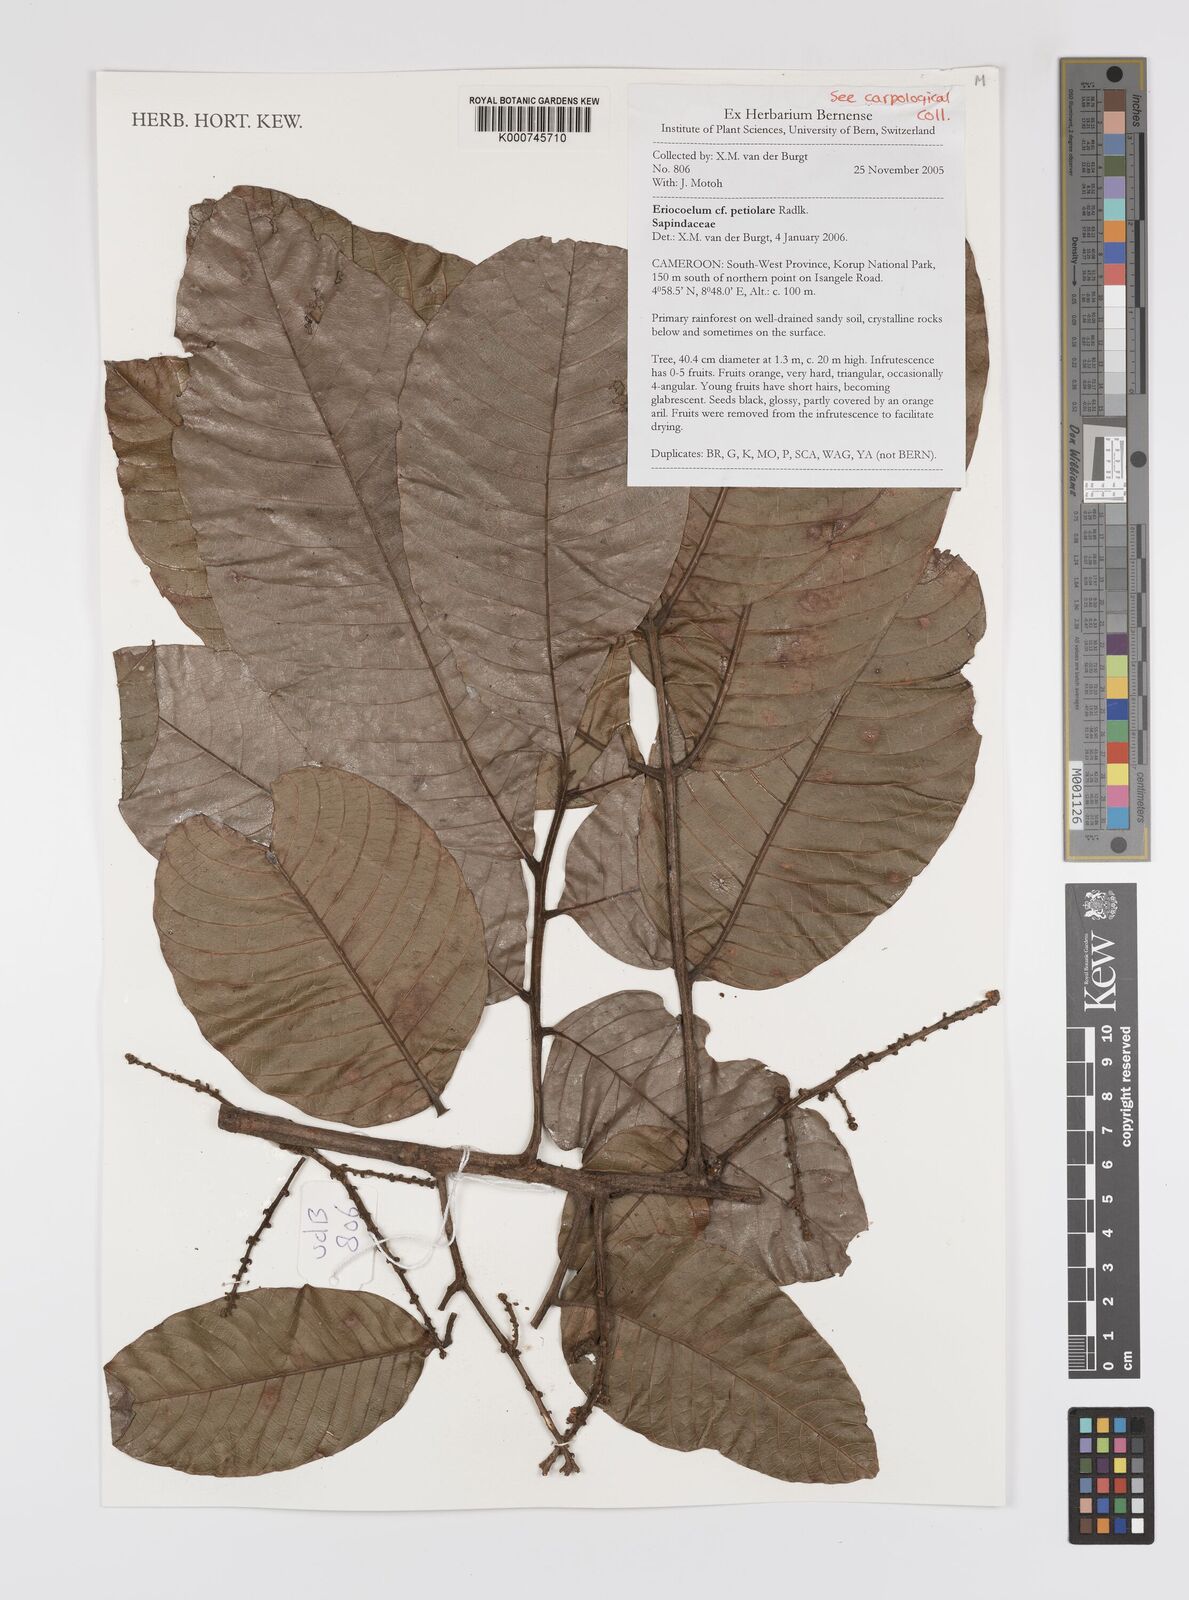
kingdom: Plantae
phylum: Tracheophyta
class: Magnoliopsida
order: Sapindales
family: Sapindaceae
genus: Eriocoelum
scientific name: Eriocoelum petiolare
